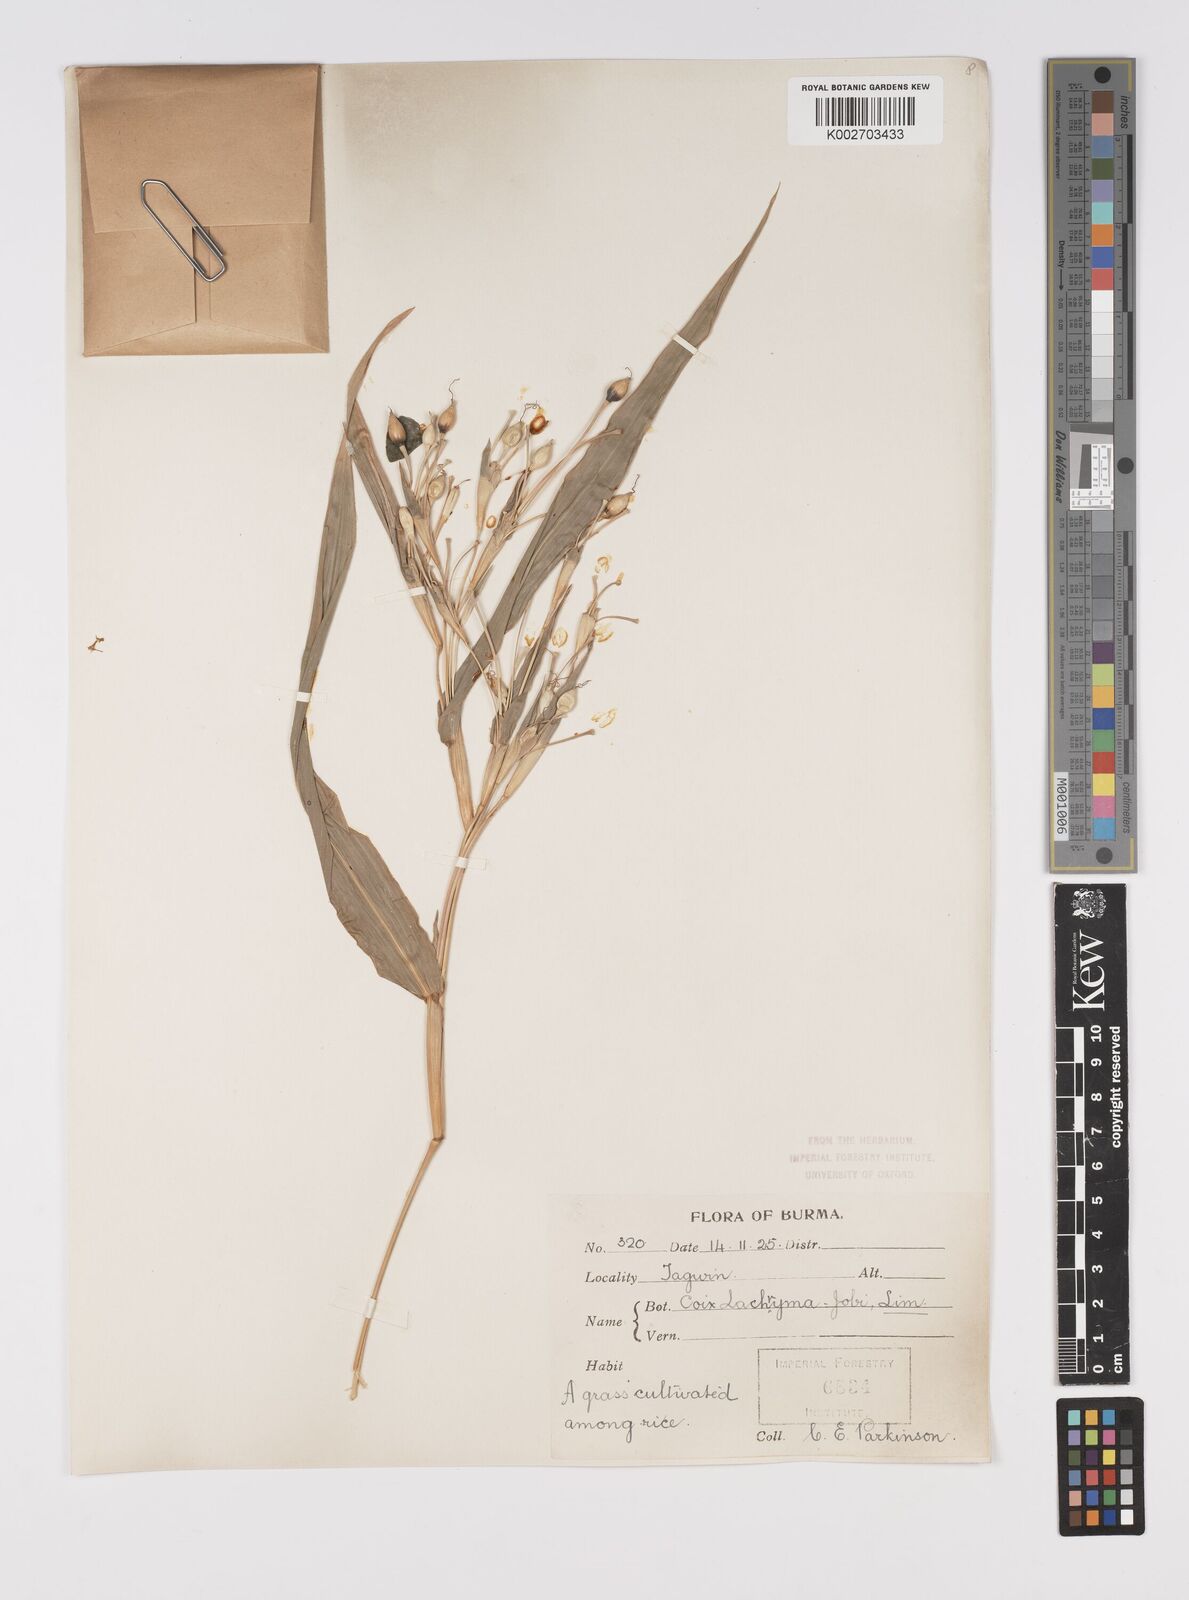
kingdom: Plantae
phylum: Tracheophyta
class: Liliopsida
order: Poales
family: Poaceae
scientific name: Poaceae
